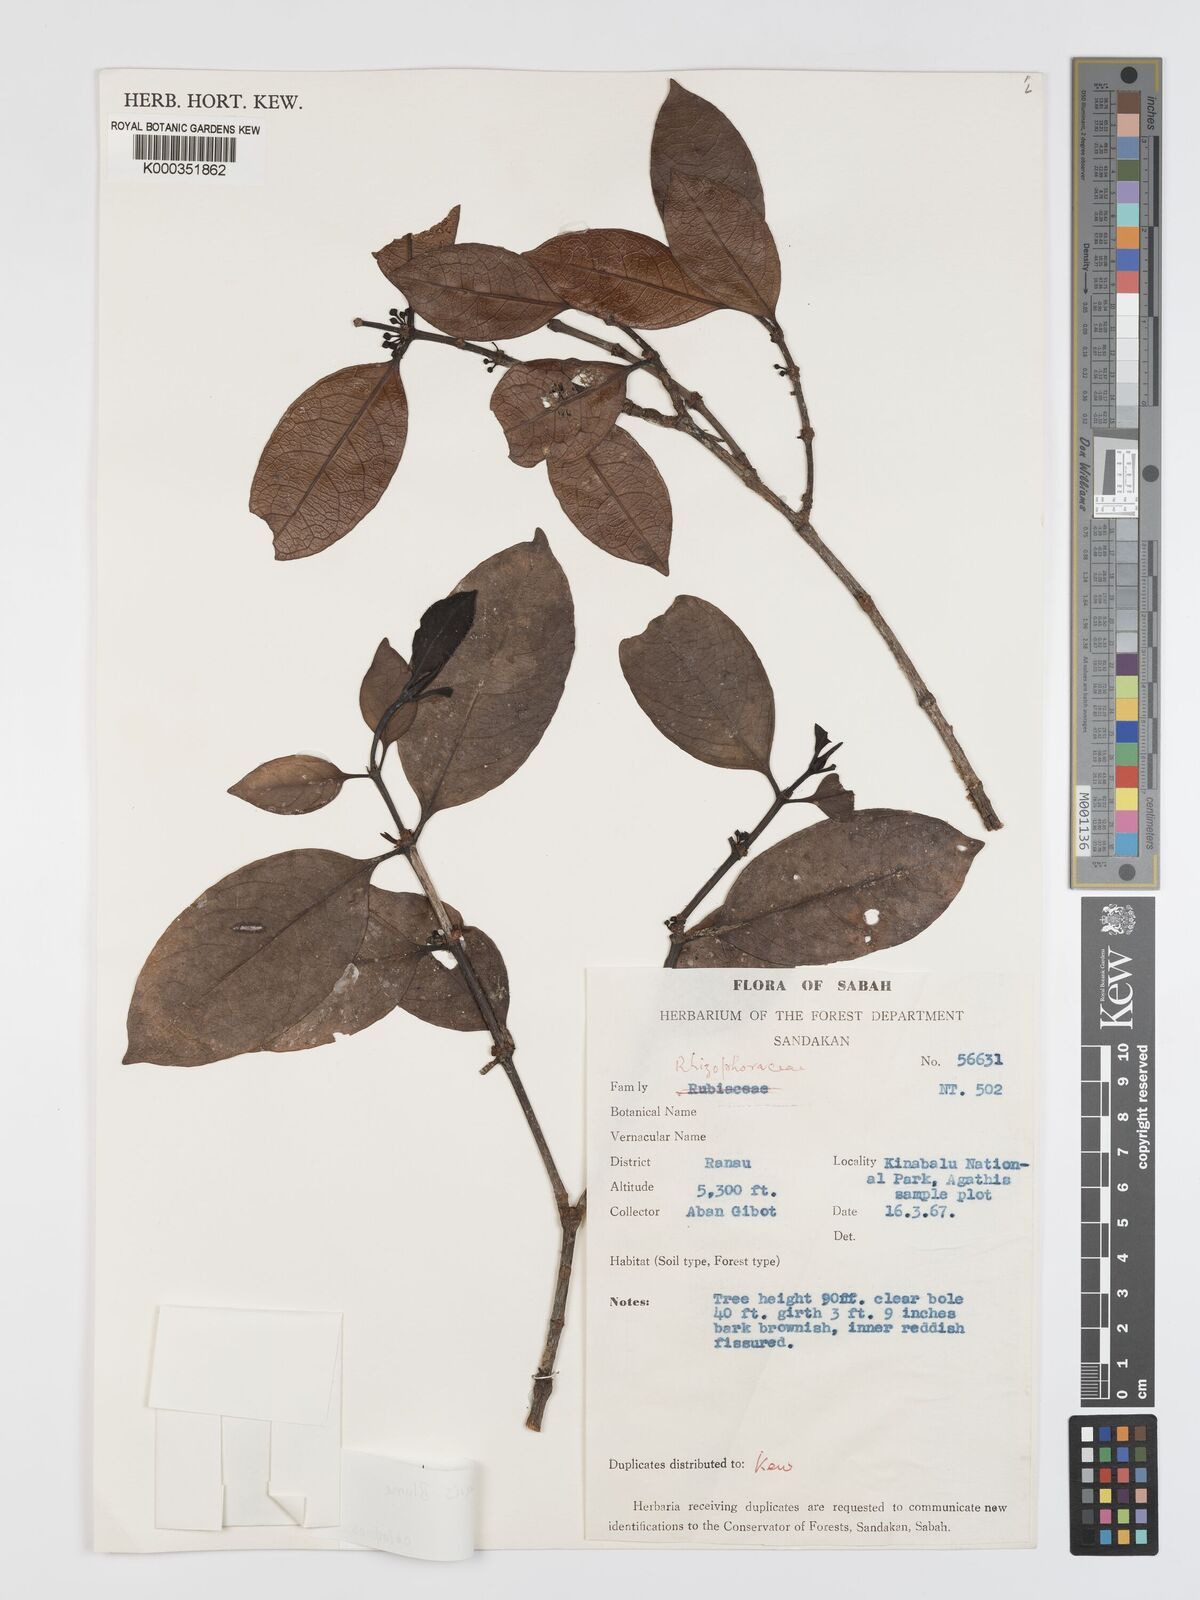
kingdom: Plantae
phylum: Tracheophyta
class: Magnoliopsida
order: Malpighiales
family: Rhizophoraceae
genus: Gynotroches
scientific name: Gynotroches axillaris
